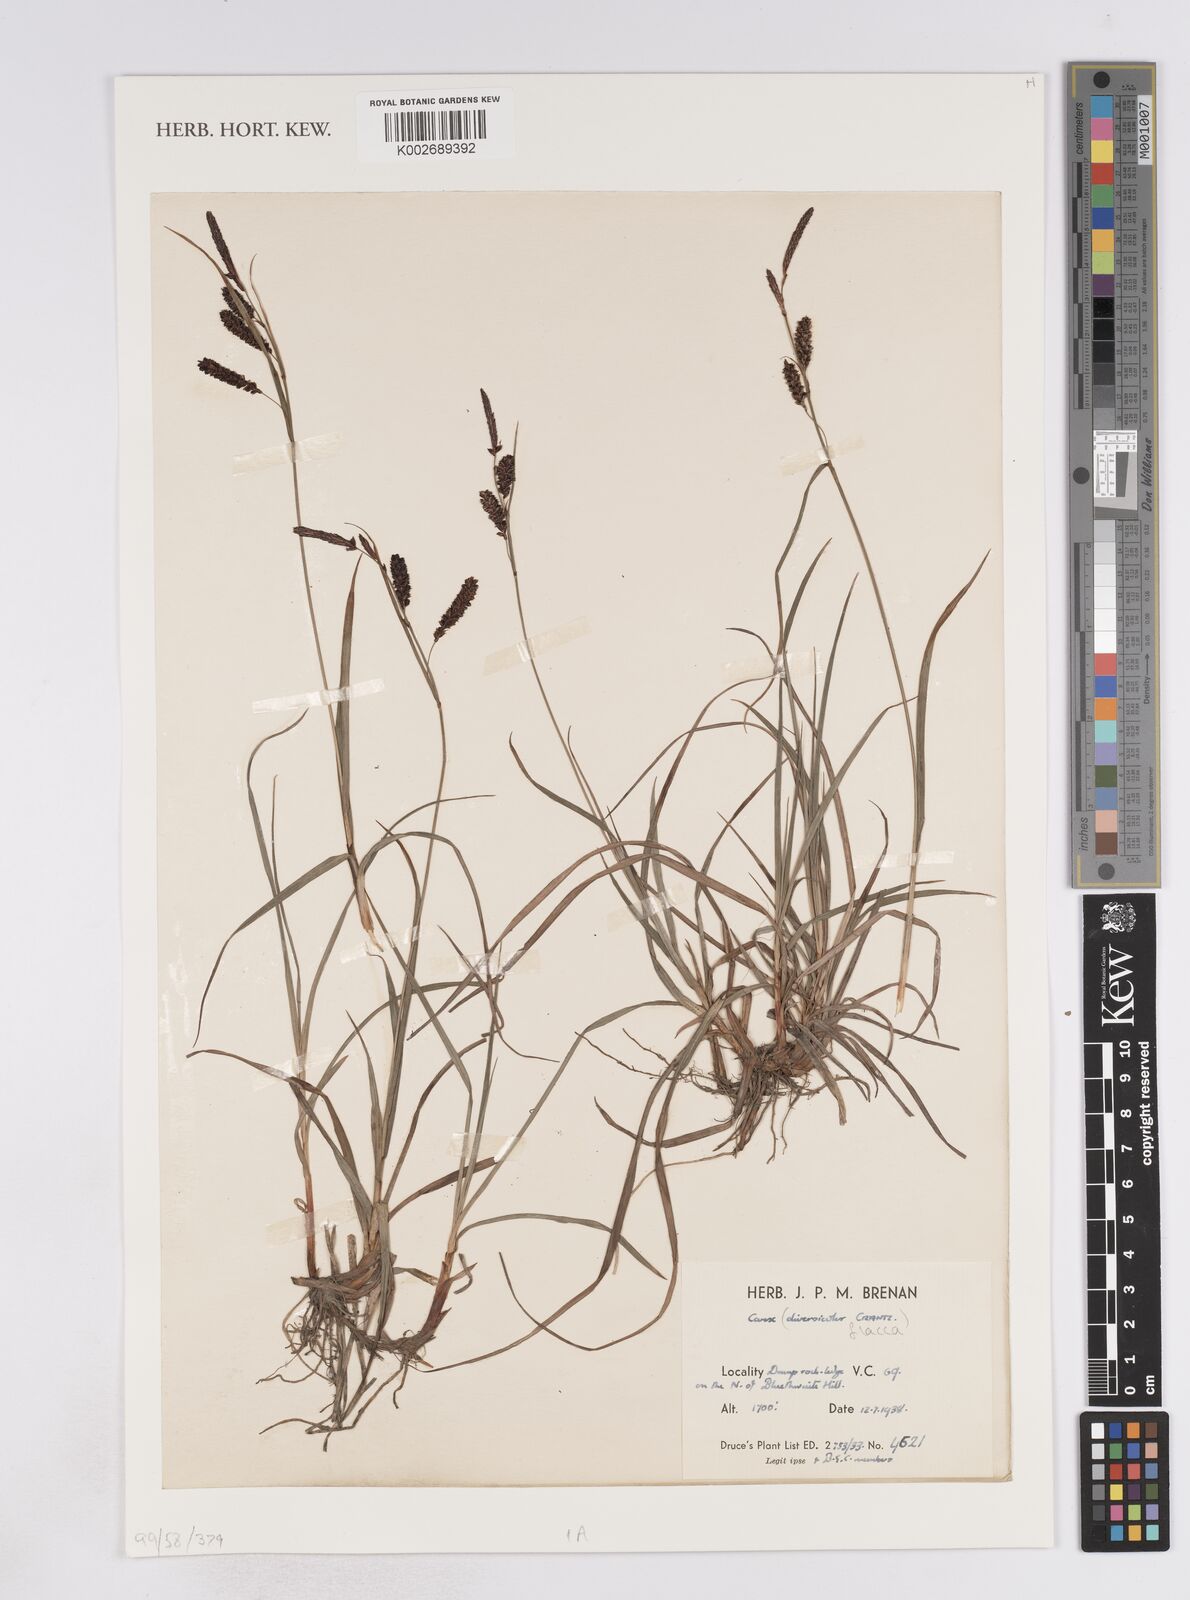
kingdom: Plantae
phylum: Tracheophyta
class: Liliopsida
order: Poales
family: Cyperaceae
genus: Carex
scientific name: Carex flacca
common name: Glaucous sedge
